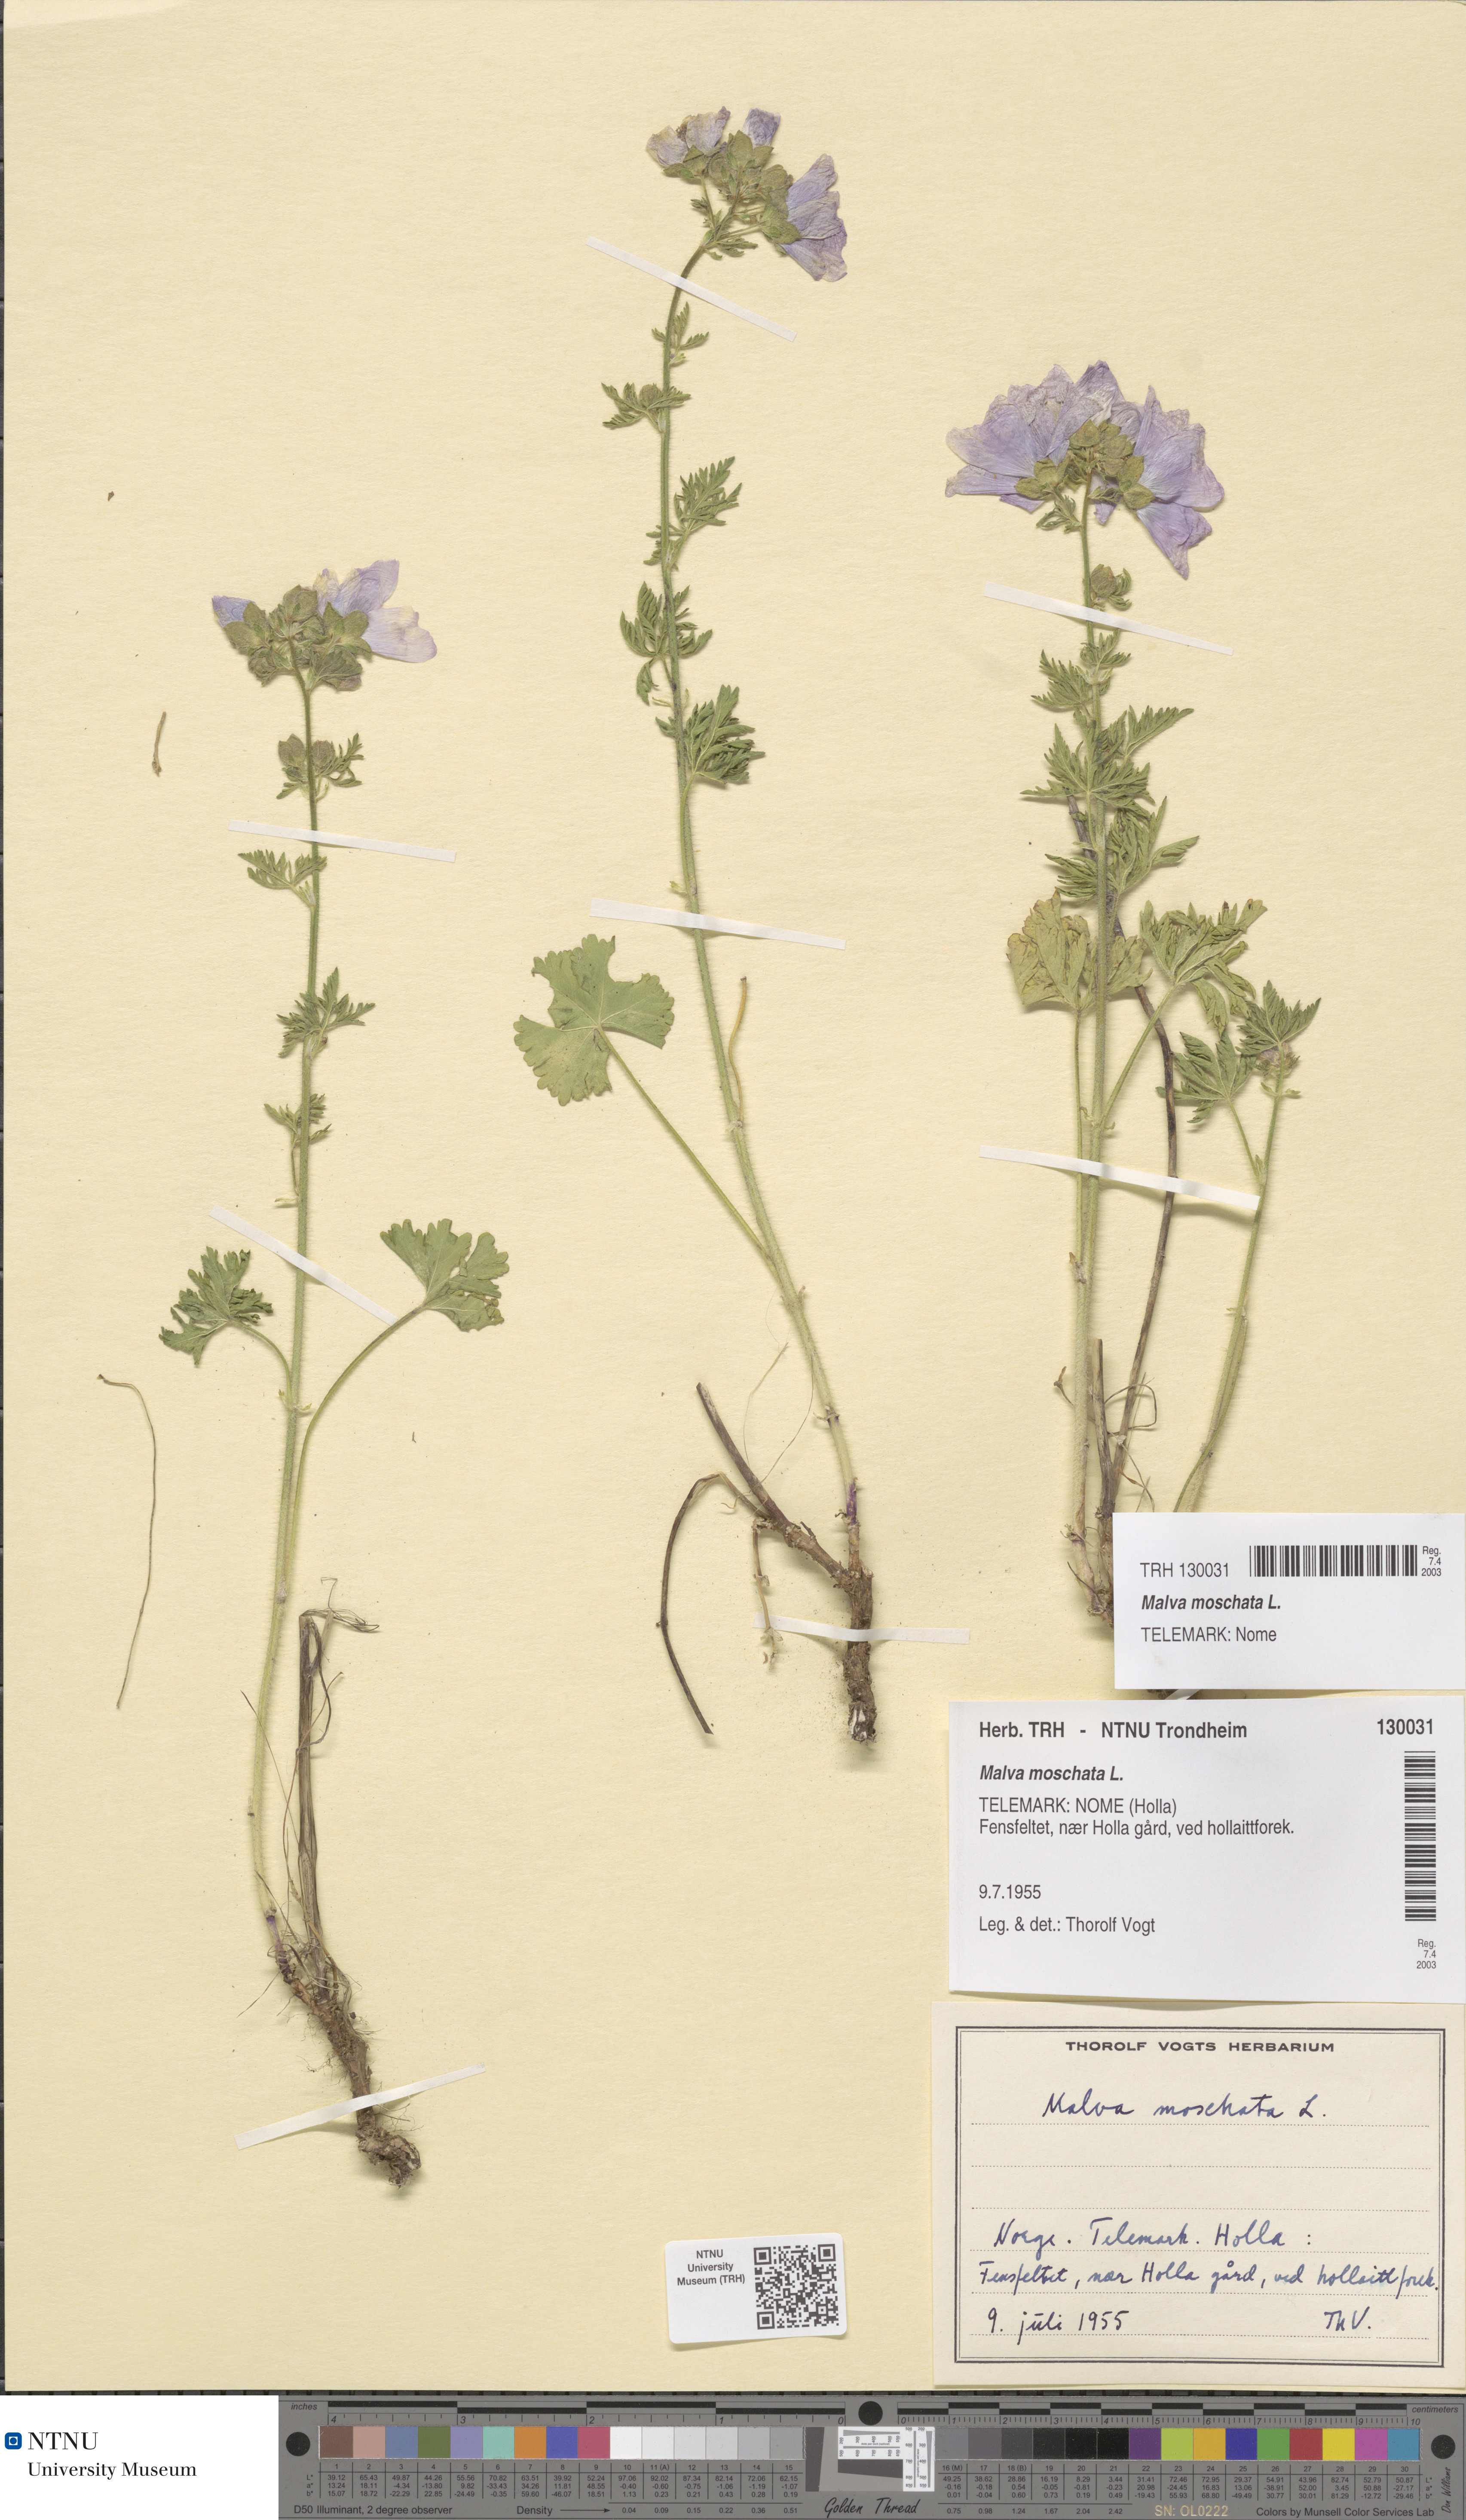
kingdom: Plantae
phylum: Tracheophyta
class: Magnoliopsida
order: Malvales
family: Malvaceae
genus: Malva
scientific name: Malva moschata
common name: Musk mallow
